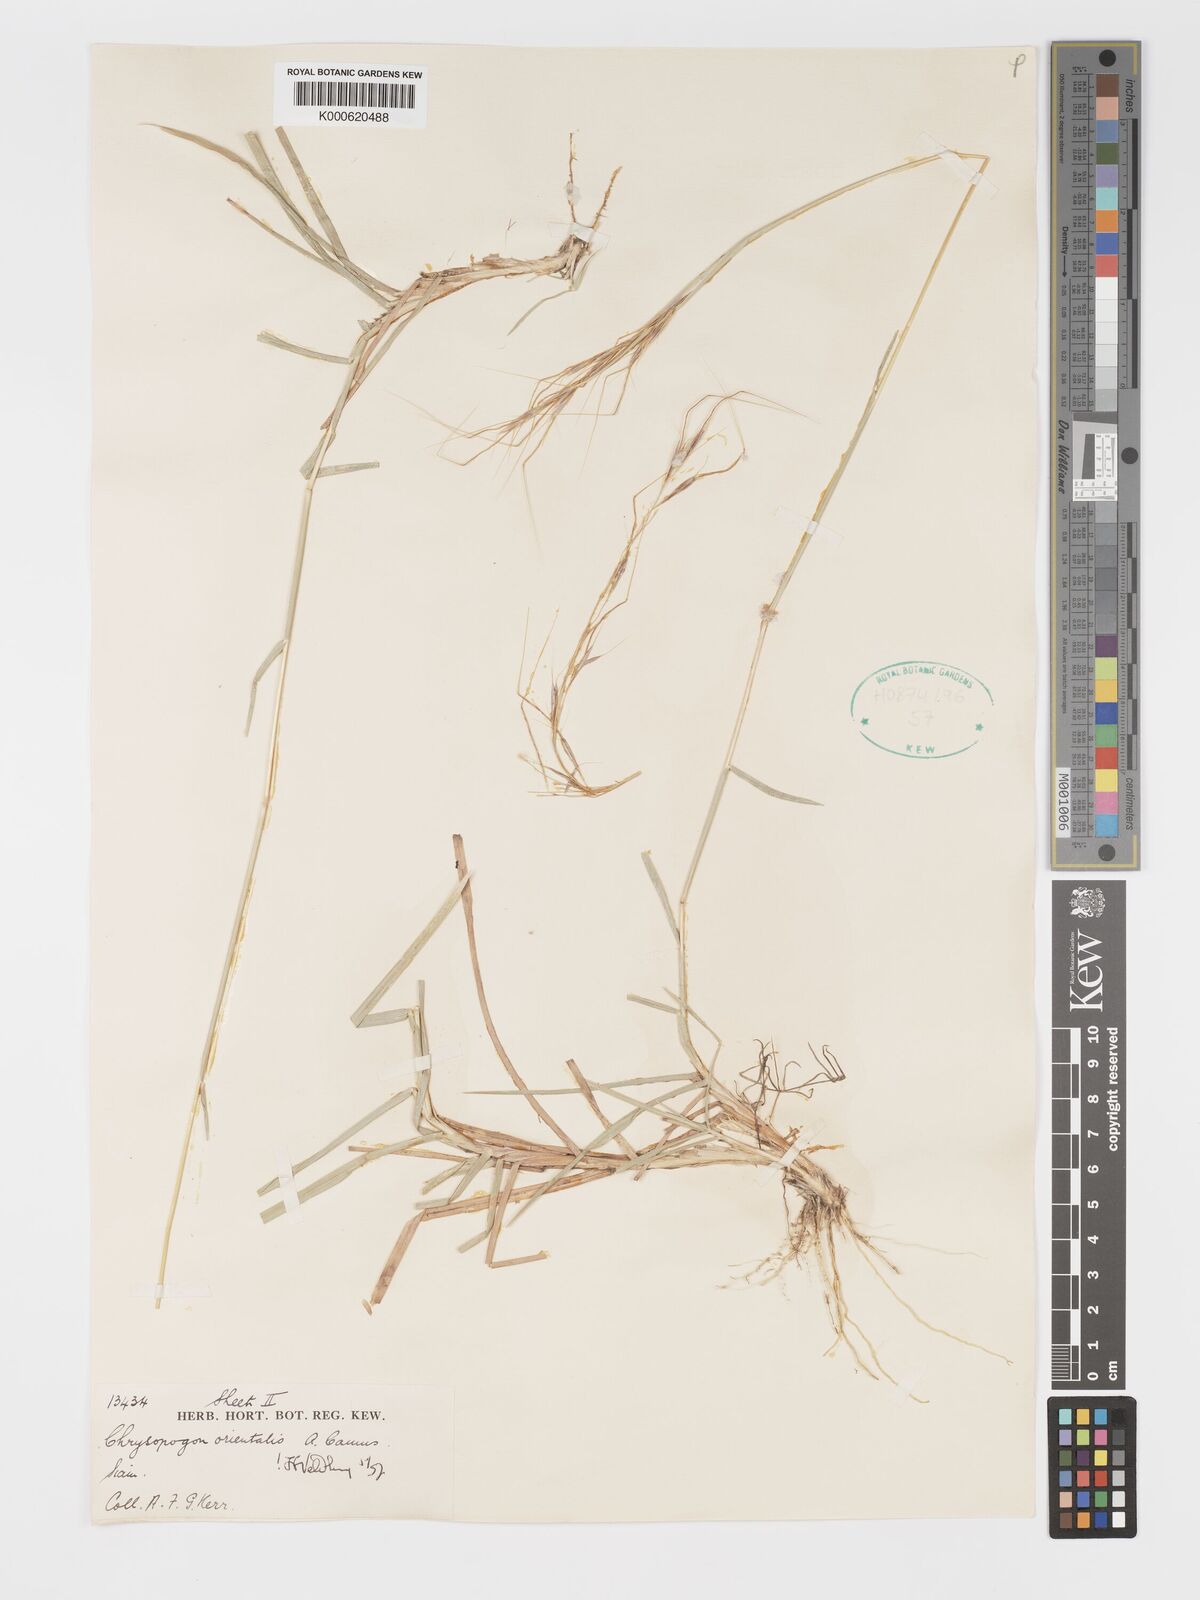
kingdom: Plantae
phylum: Tracheophyta
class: Liliopsida
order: Poales
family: Poaceae
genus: Chrysopogon
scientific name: Chrysopogon orientalis
